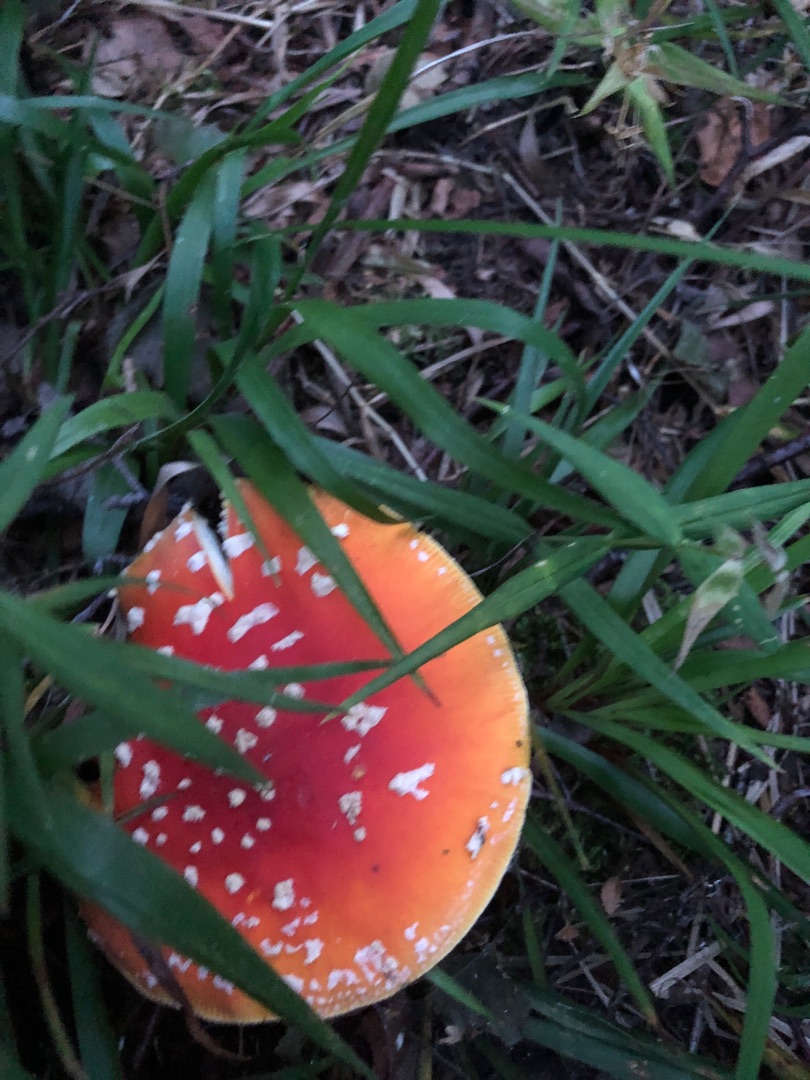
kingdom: Fungi
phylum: Basidiomycota
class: Agaricomycetes
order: Agaricales
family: Amanitaceae
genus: Amanita
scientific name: Amanita muscaria
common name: Rød fluesvamp
